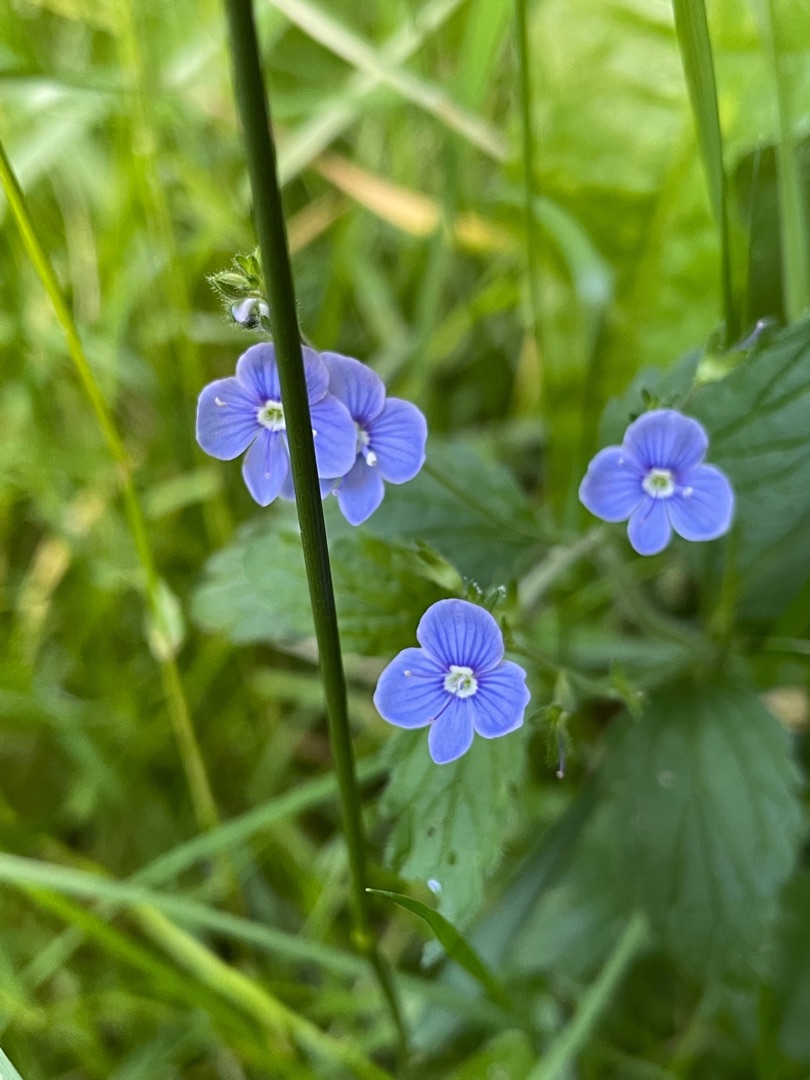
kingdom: Plantae
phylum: Tracheophyta
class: Magnoliopsida
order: Lamiales
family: Plantaginaceae
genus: Veronica
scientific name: Veronica chamaedrys
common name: Tveskægget ærenpris
